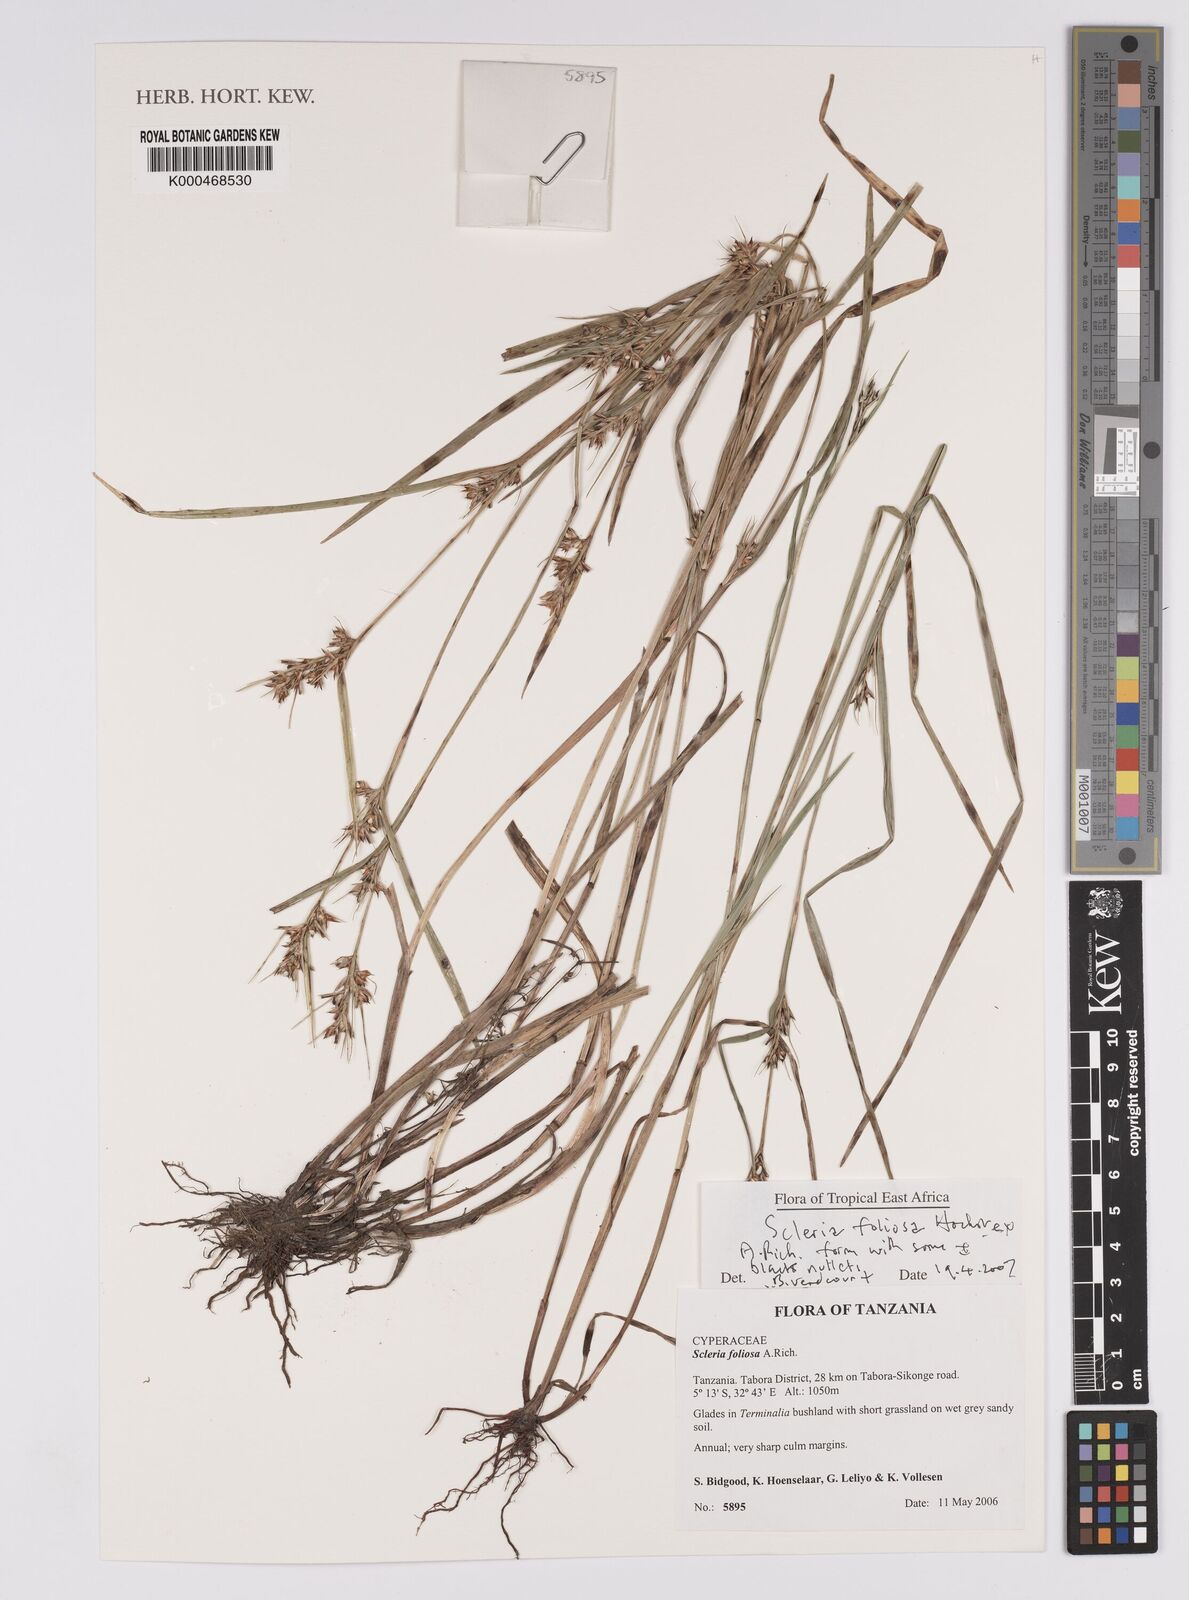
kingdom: Plantae
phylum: Tracheophyta
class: Liliopsida
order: Poales
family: Cyperaceae
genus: Scleria
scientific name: Scleria foliosa
